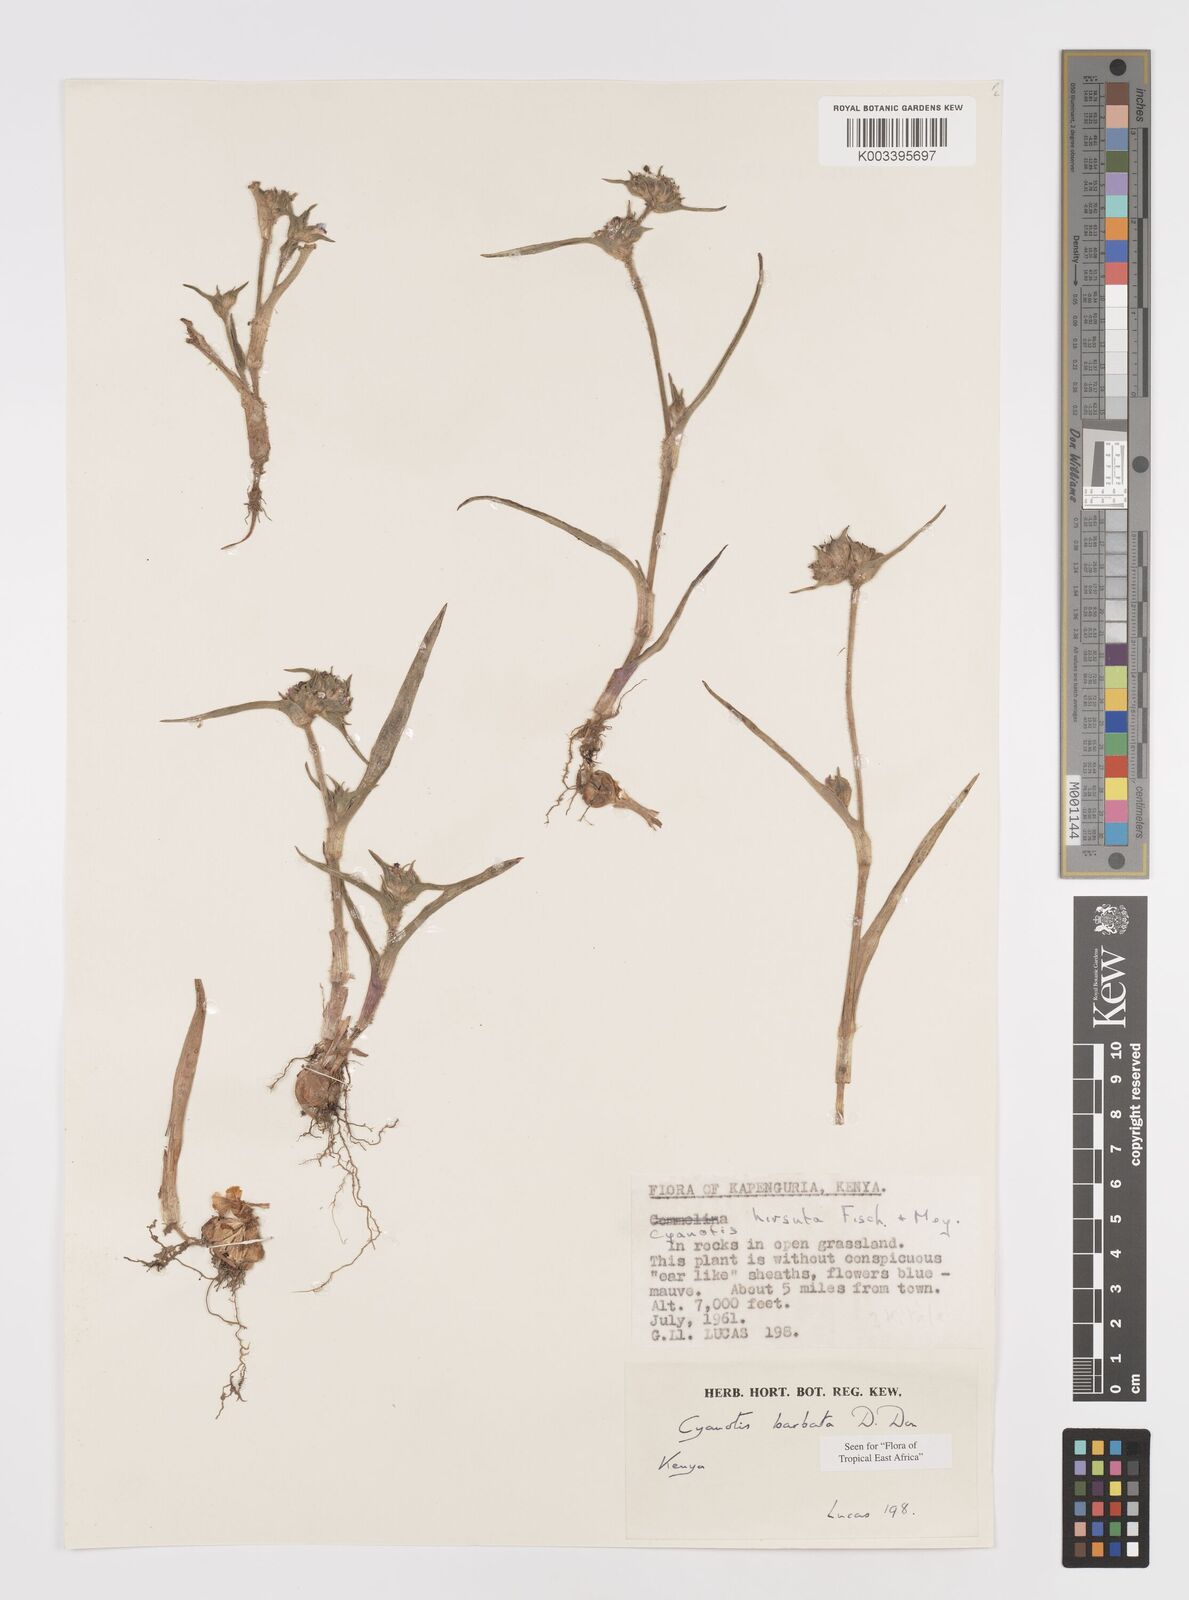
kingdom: Plantae
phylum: Tracheophyta
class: Liliopsida
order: Commelinales
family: Commelinaceae
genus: Cyanotis
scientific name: Cyanotis vaga
